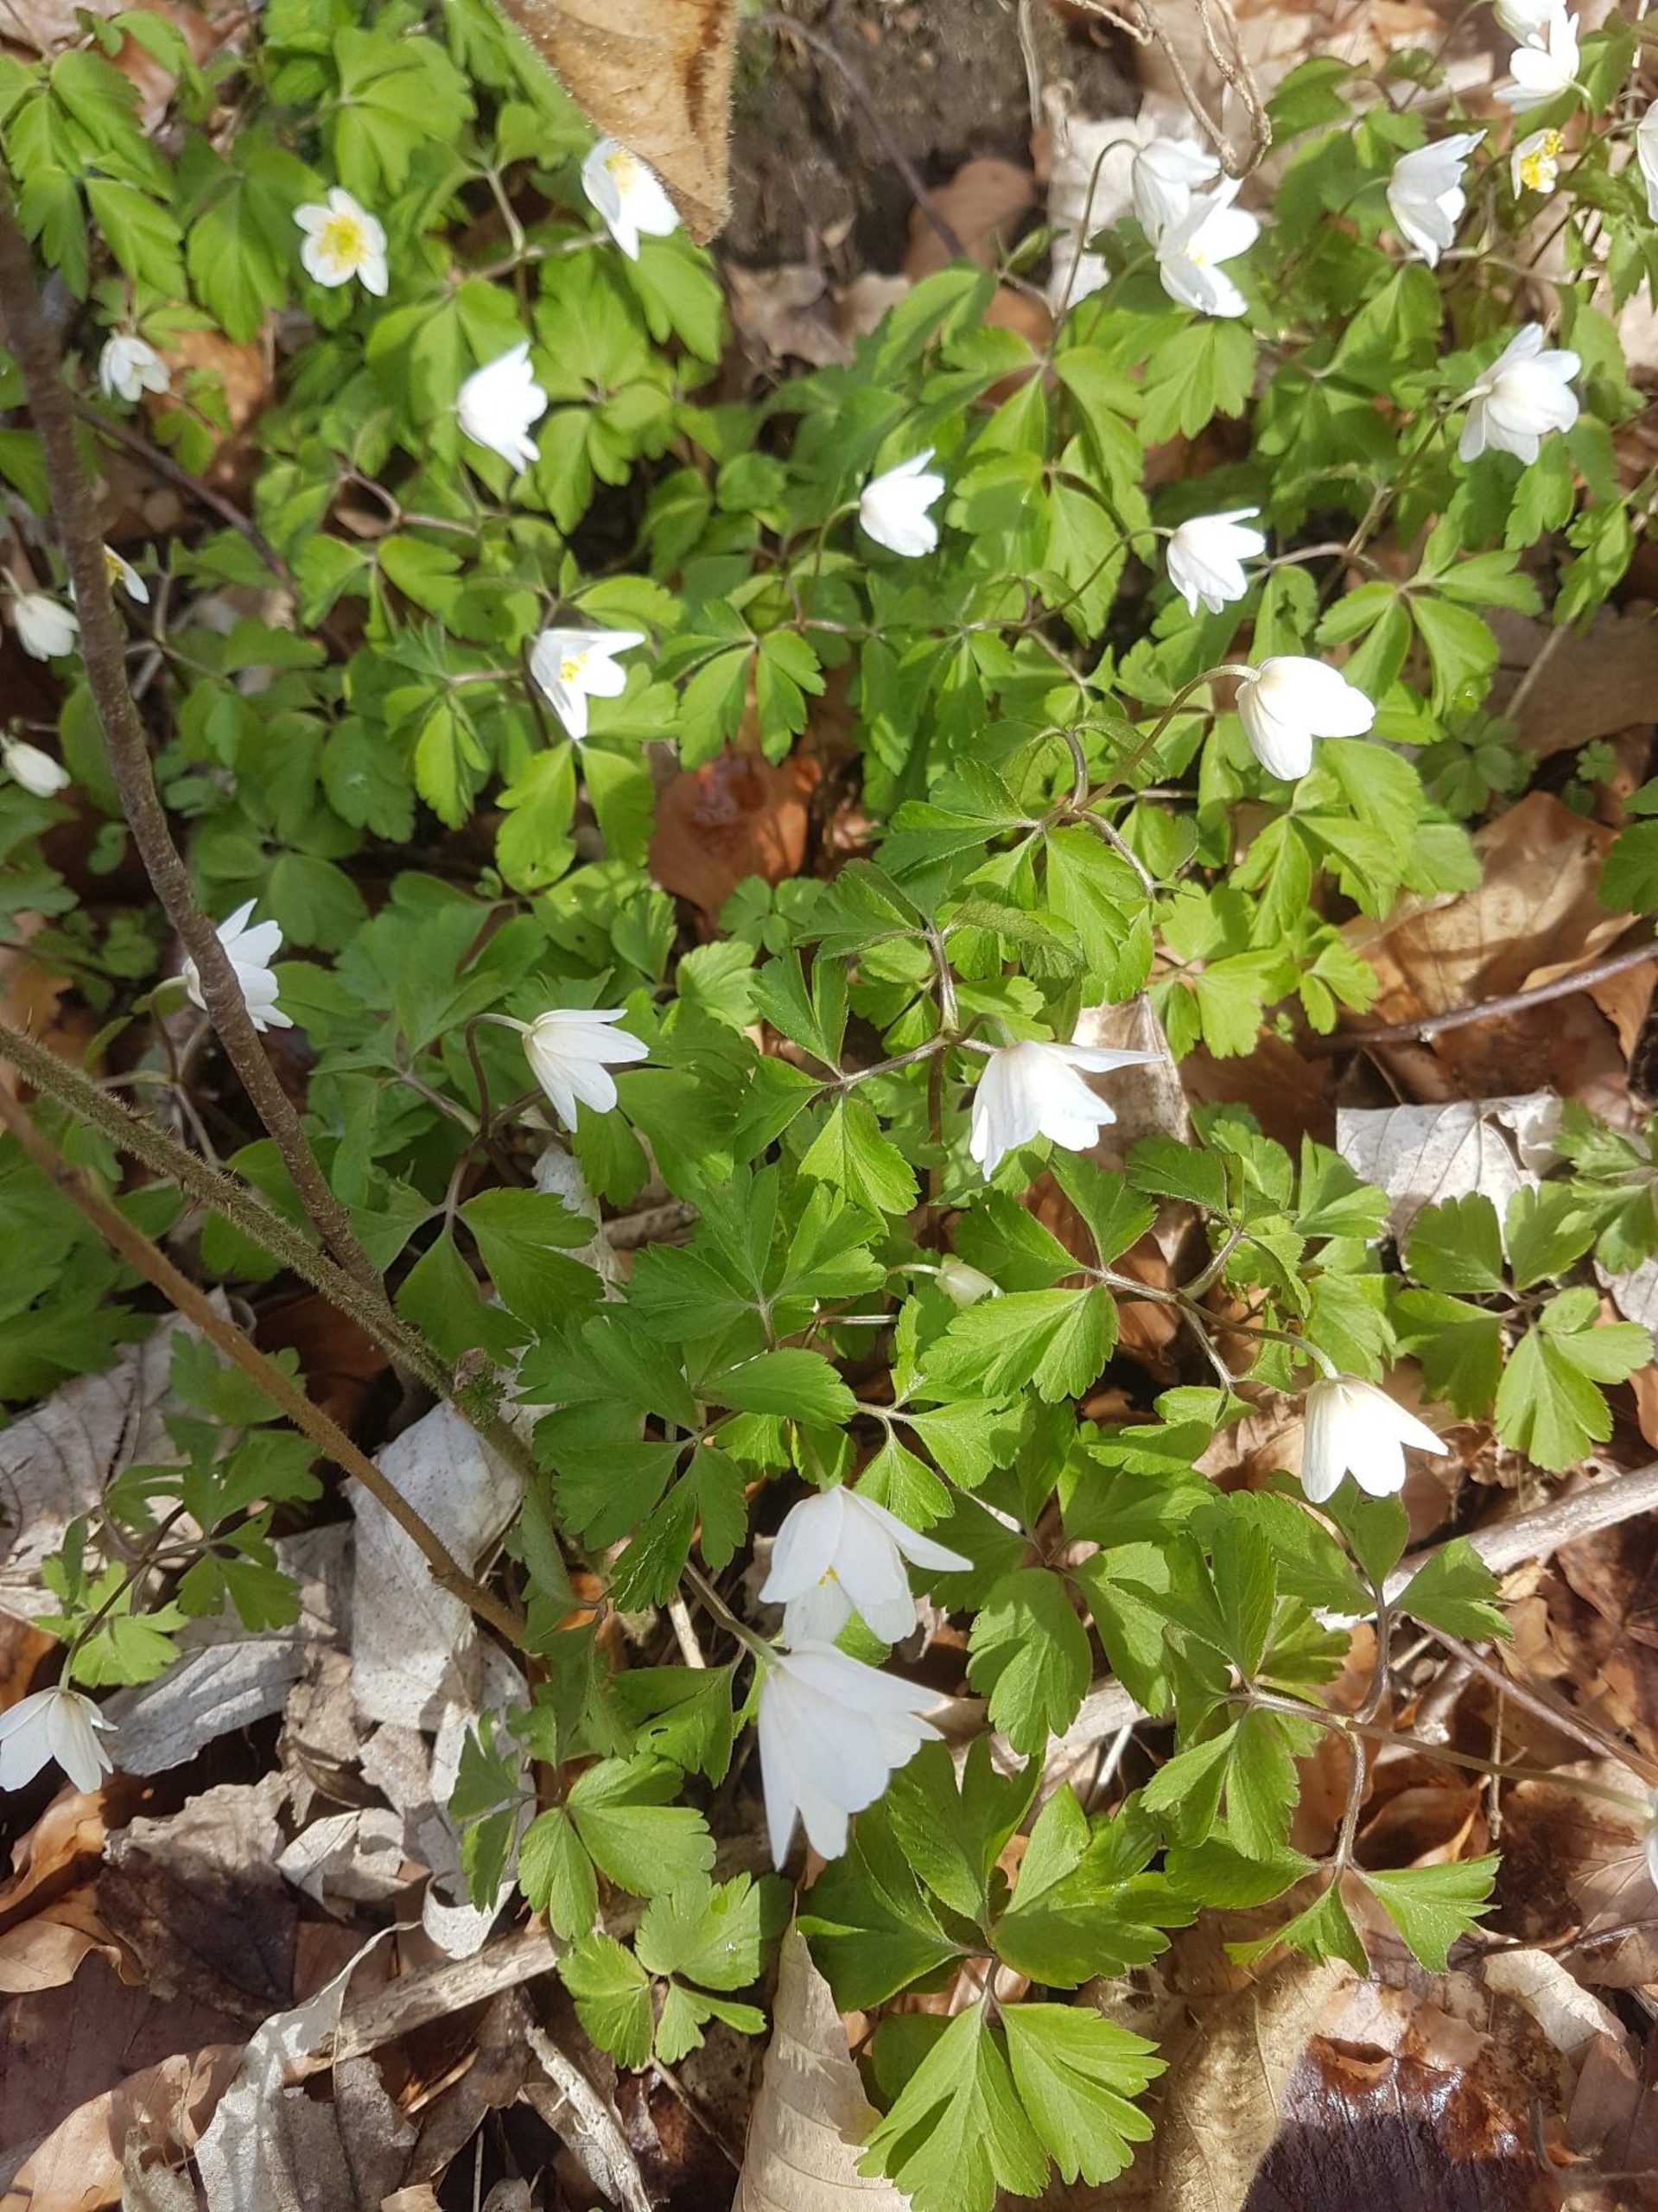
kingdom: Plantae
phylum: Tracheophyta
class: Magnoliopsida
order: Ranunculales
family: Ranunculaceae
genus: Anemone
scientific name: Anemone nemorosa
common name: Hvid anemone
